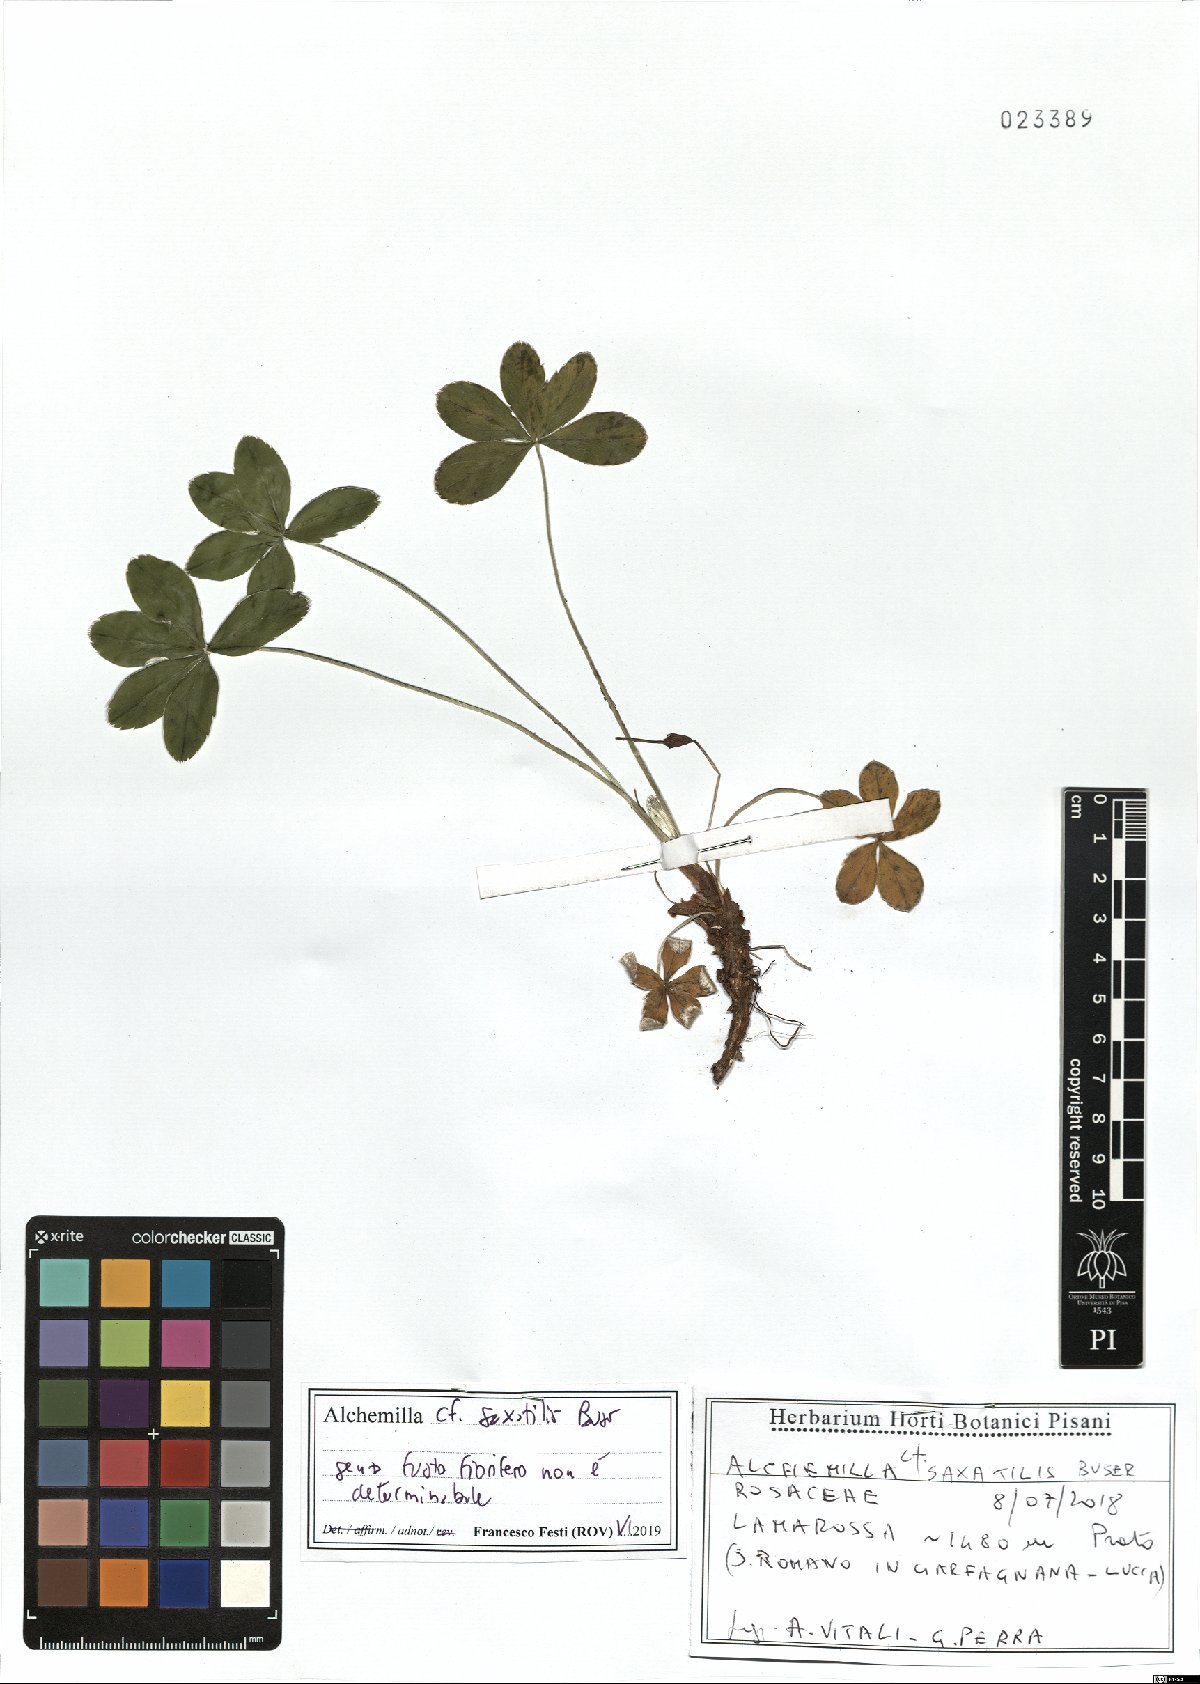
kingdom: Plantae
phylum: Tracheophyta
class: Magnoliopsida
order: Rosales
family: Rosaceae
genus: Alchemilla
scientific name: Alchemilla saxatilis
